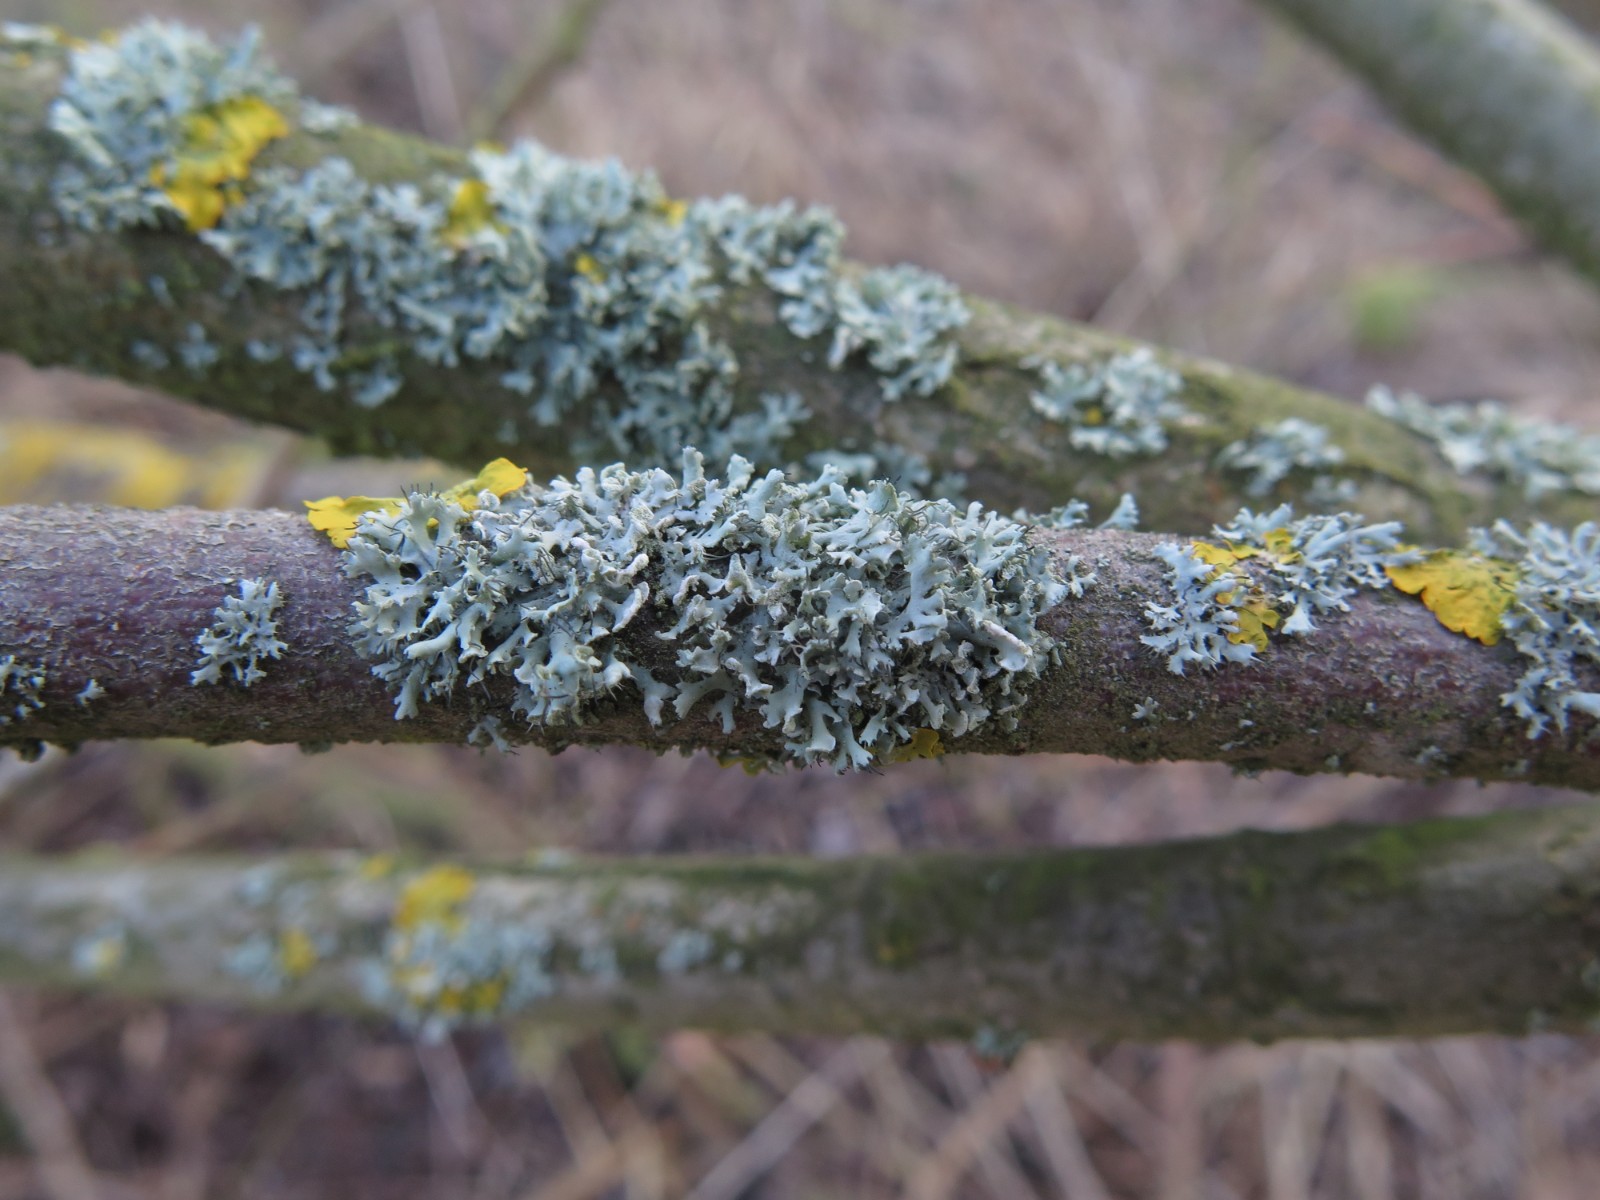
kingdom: Fungi
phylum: Ascomycota
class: Lecanoromycetes
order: Caliciales
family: Physciaceae
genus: Physcia
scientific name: Physcia tenella
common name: spæd rosetlav
